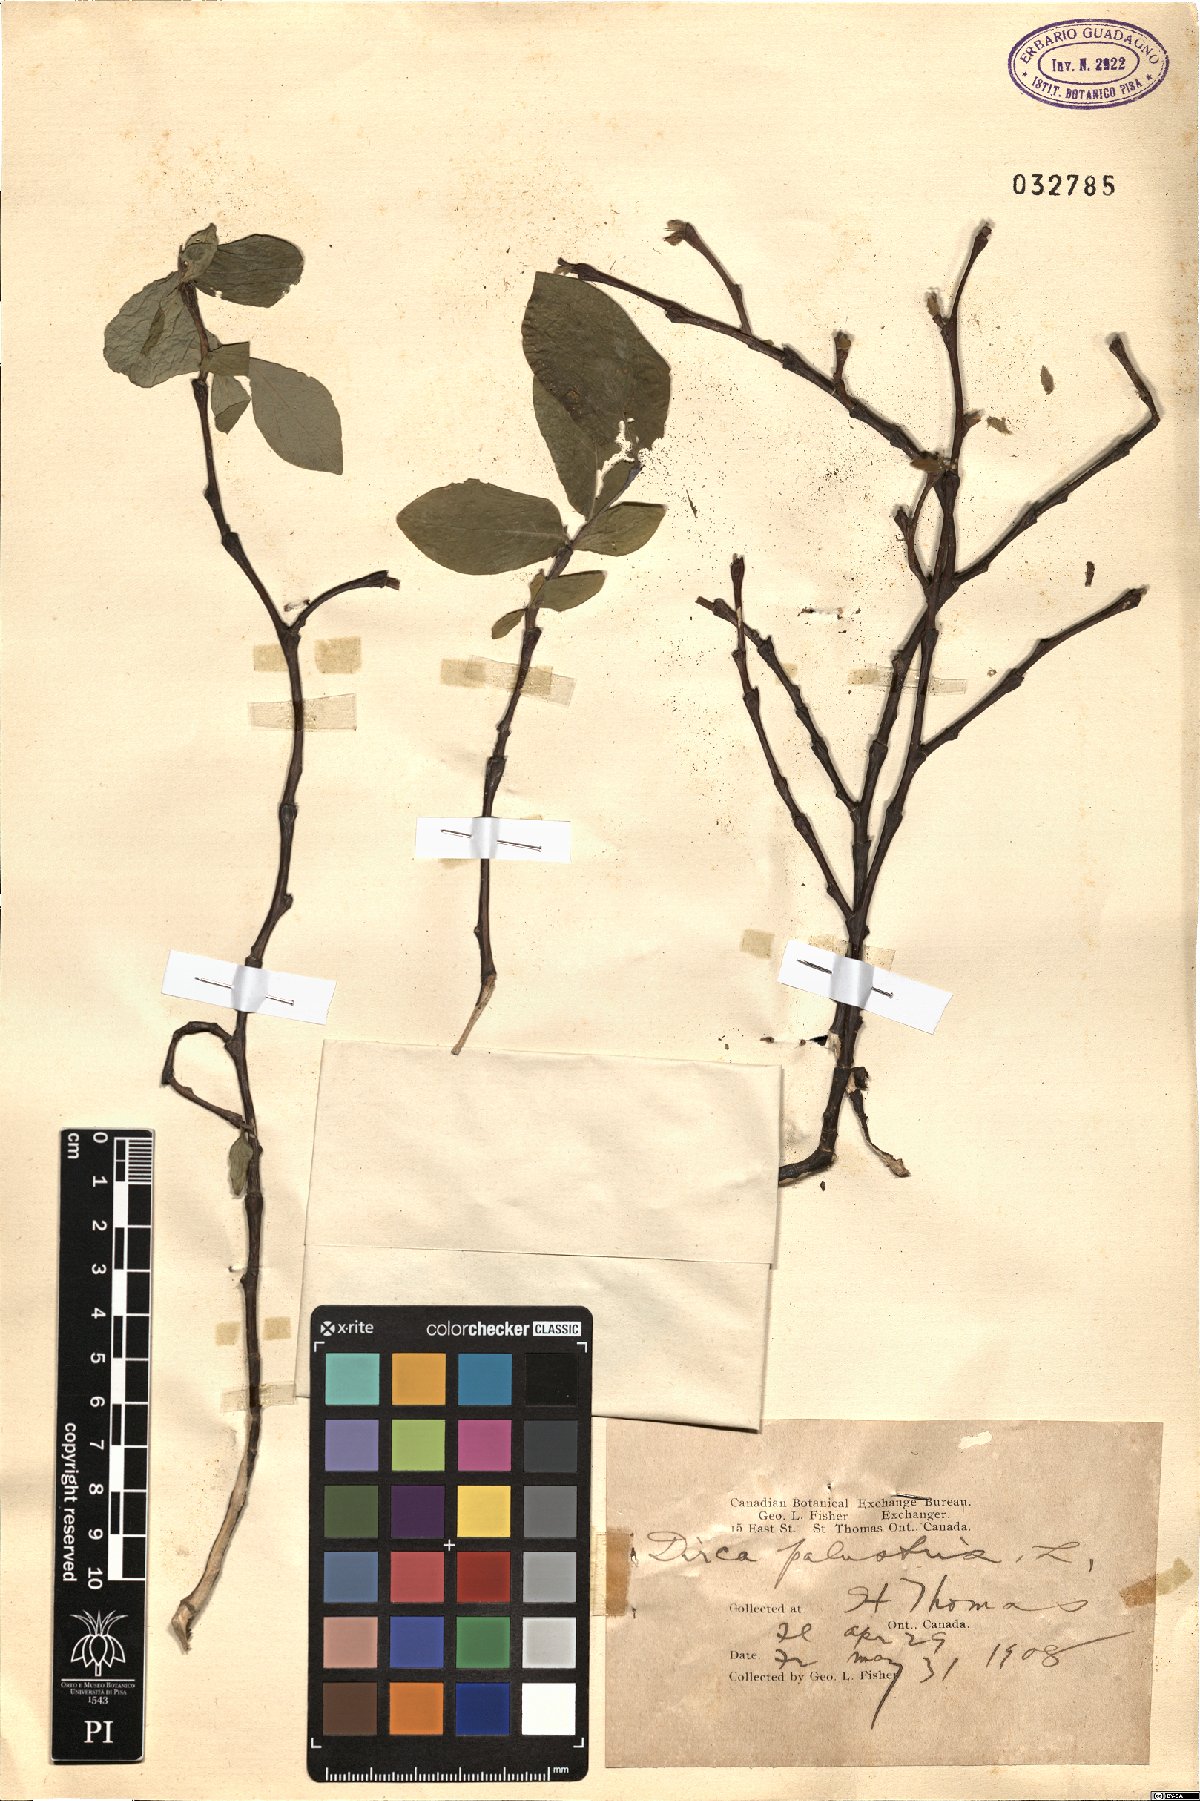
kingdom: Plantae
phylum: Tracheophyta
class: Magnoliopsida
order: Malvales
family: Thymelaeaceae
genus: Dirca
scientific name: Dirca palustris
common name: Leatherwood
